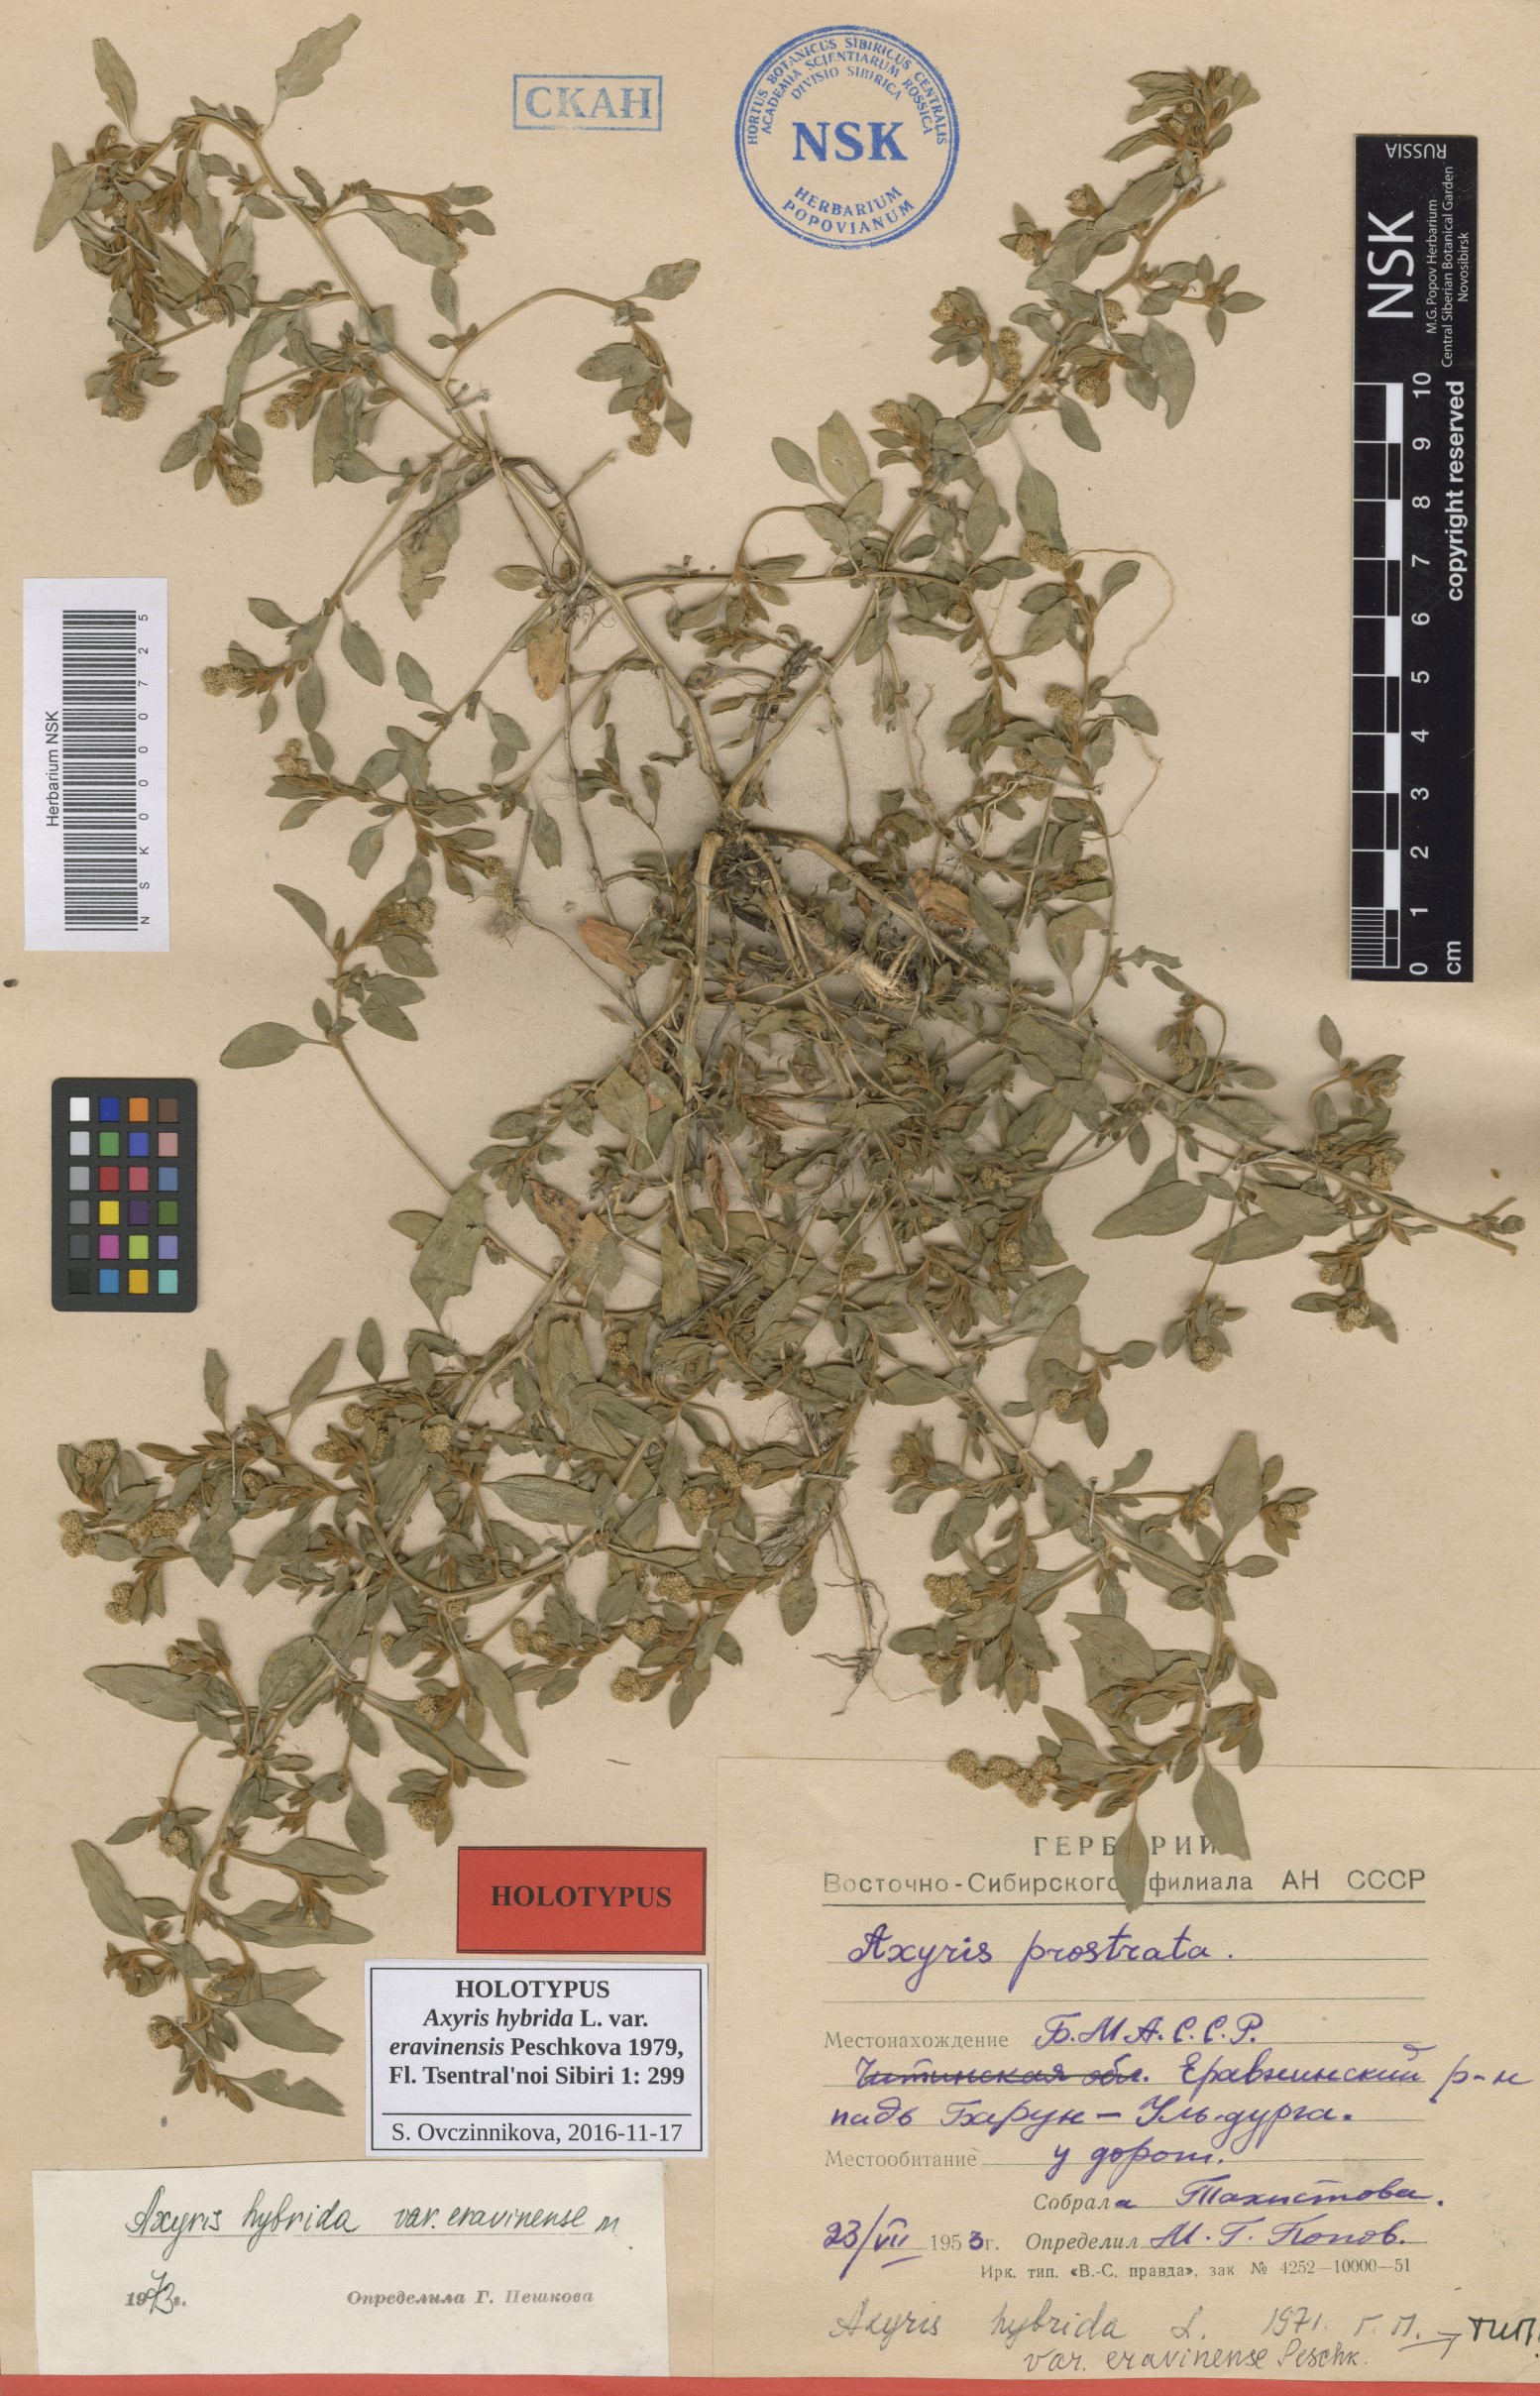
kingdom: Plantae
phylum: Tracheophyta
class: Magnoliopsida
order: Caryophyllales
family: Amaranthaceae
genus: Axyris
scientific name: Axyris hybrida
